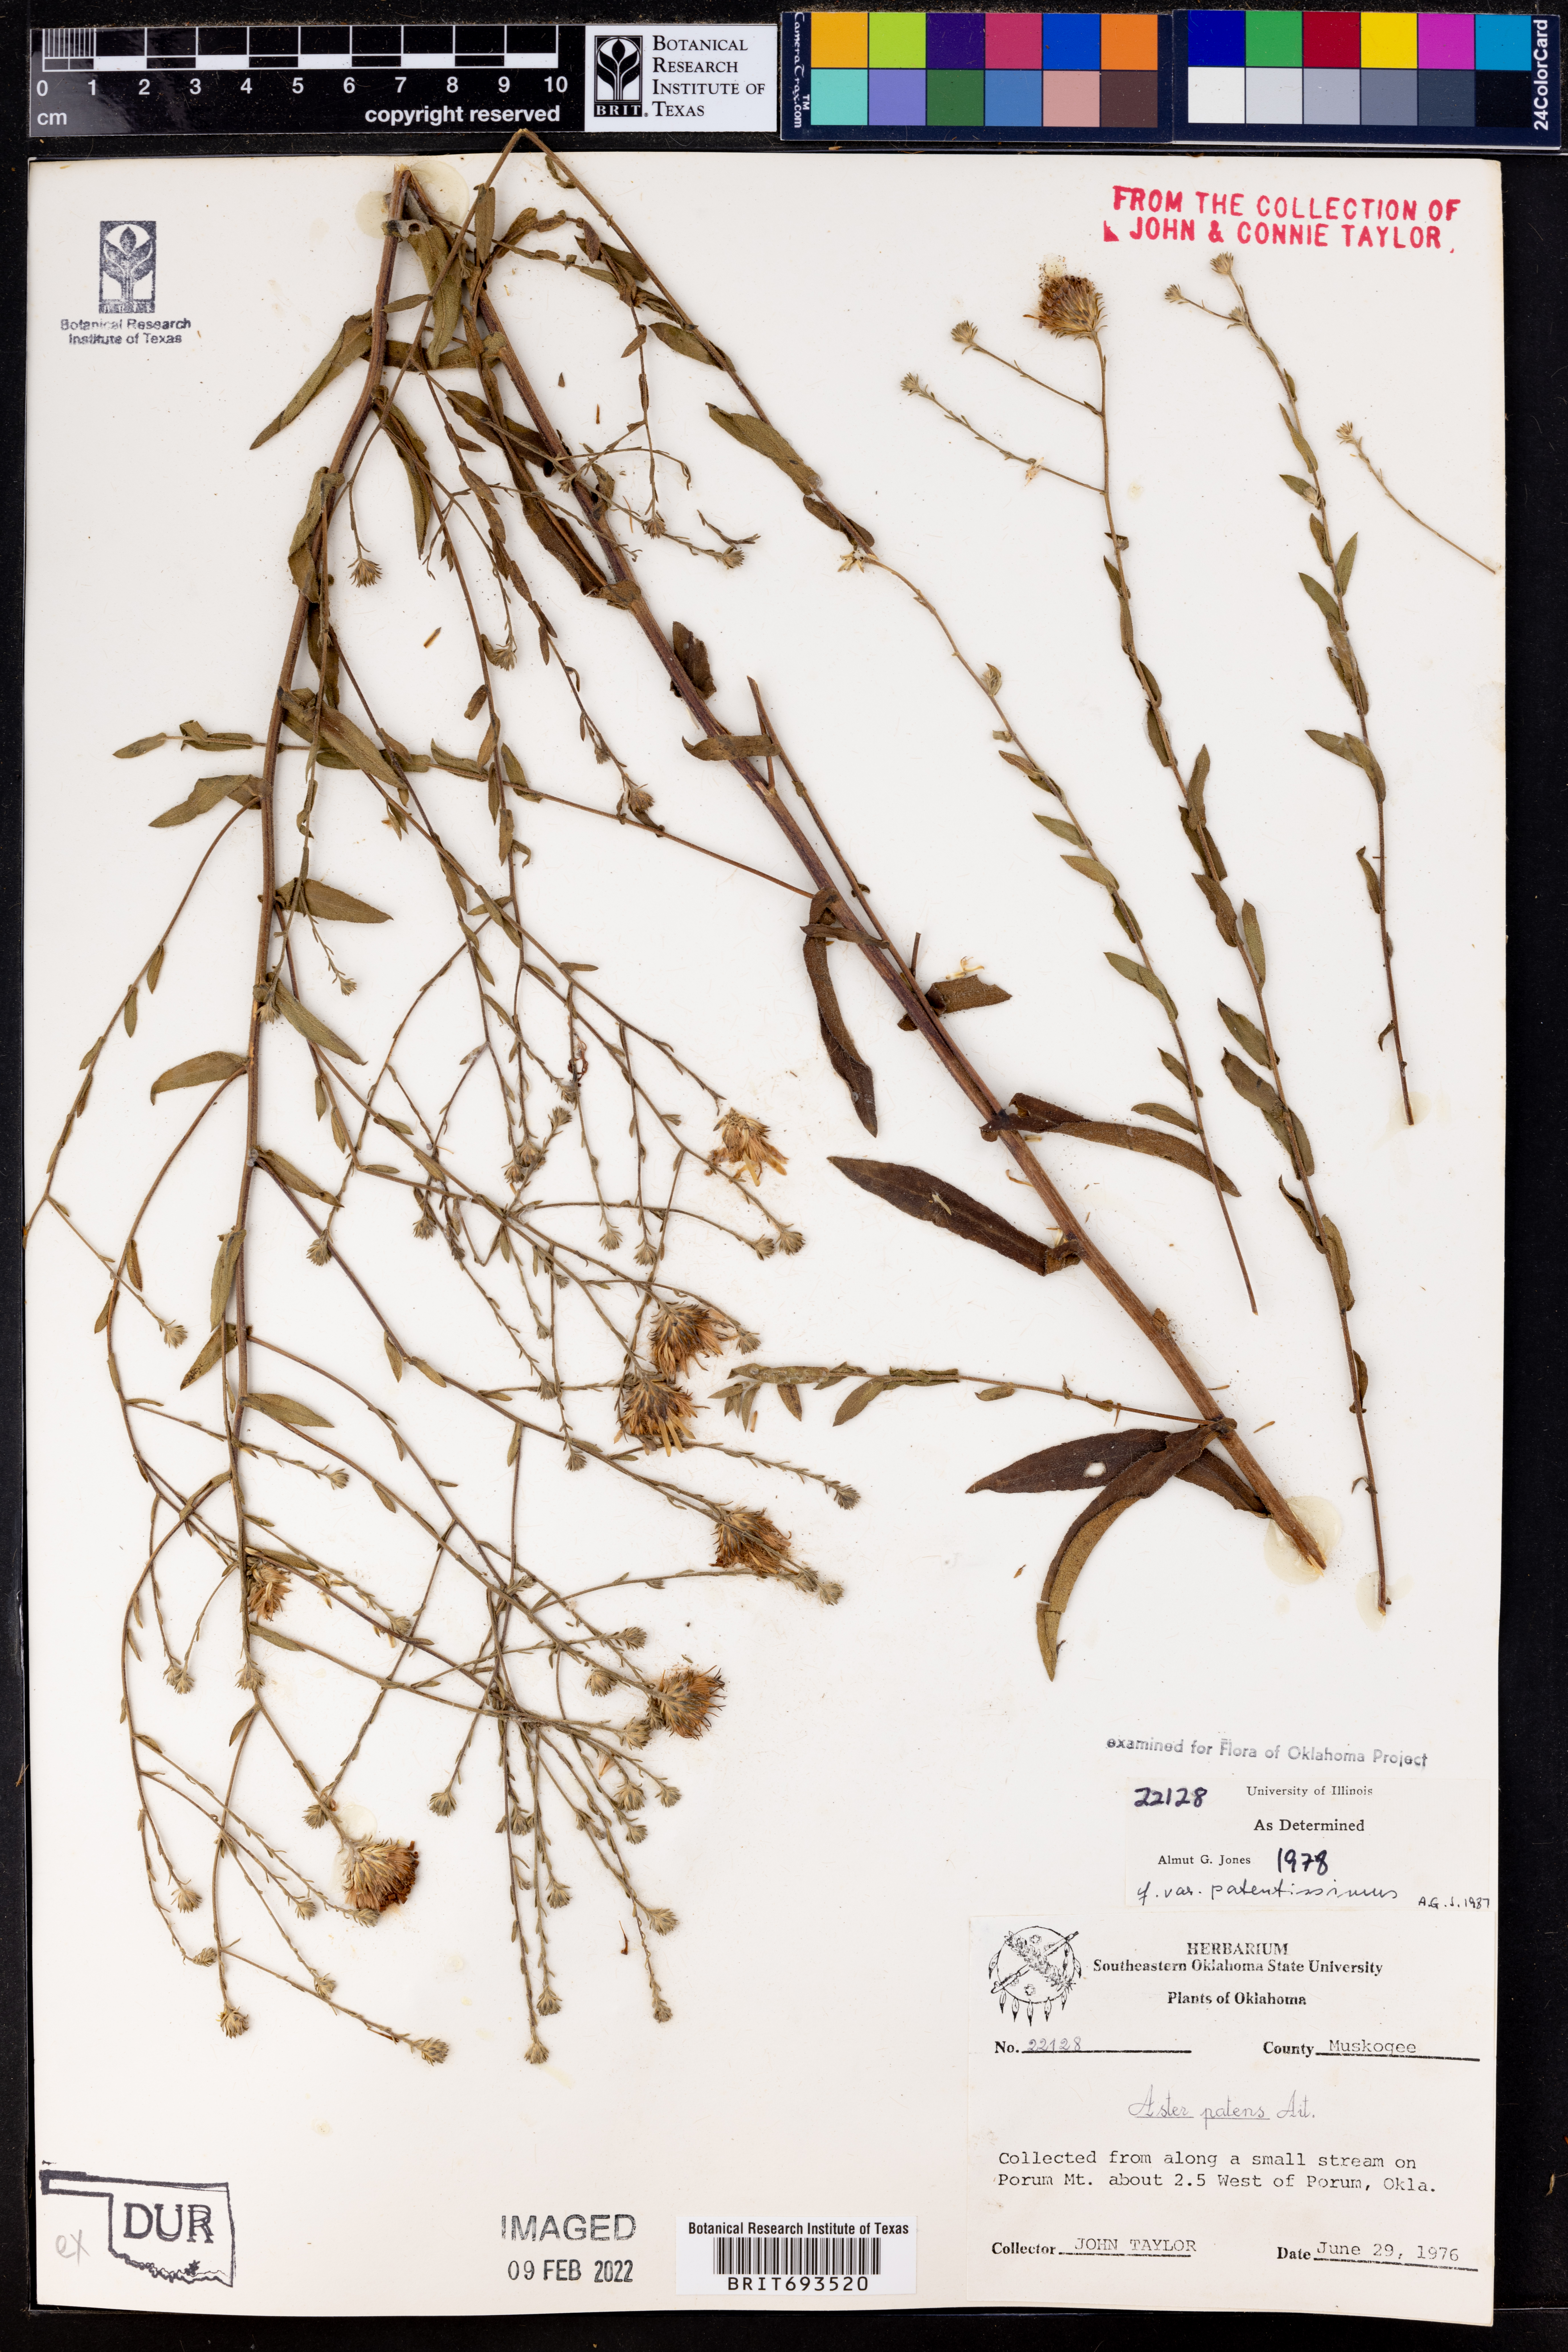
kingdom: Plantae
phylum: Tracheophyta
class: Magnoliopsida
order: Asterales
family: Asteraceae
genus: Symphyotrichum
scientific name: Symphyotrichum patens
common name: Late purple aster
